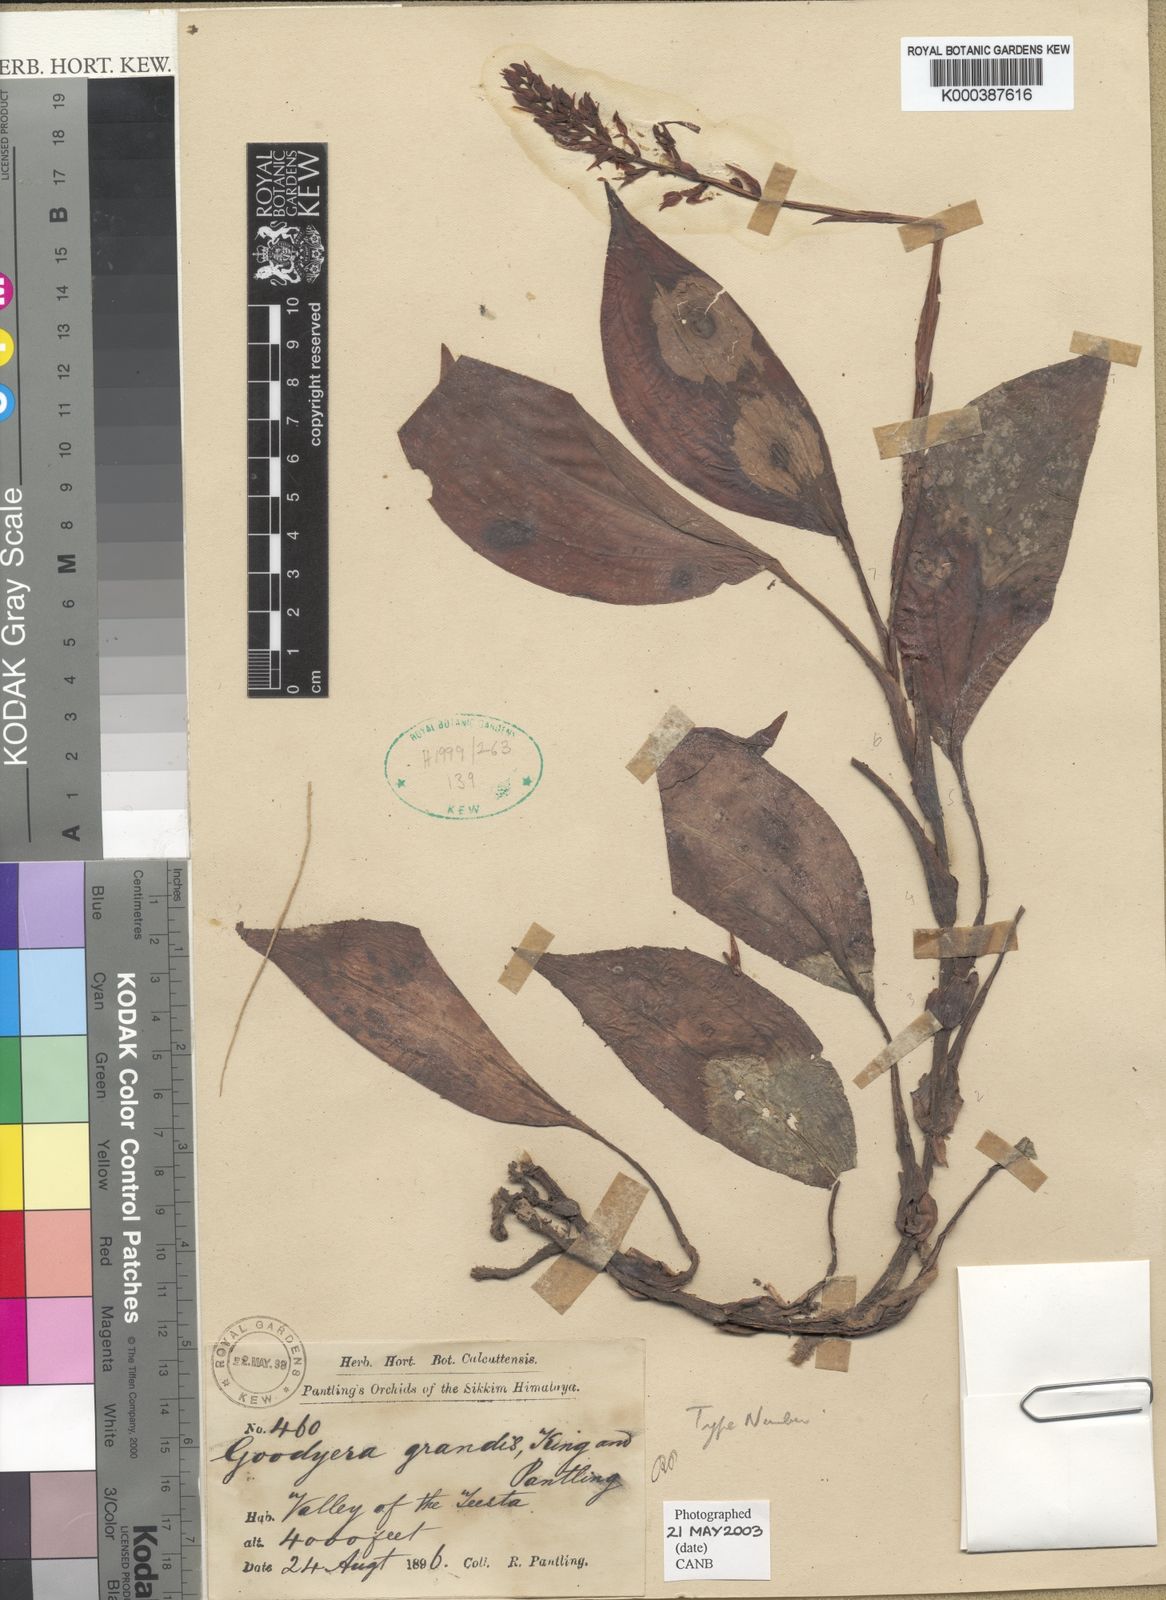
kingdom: Plantae
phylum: Tracheophyta
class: Liliopsida
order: Asparagales
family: Orchidaceae
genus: Goodyera
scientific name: Goodyera rubicunda
